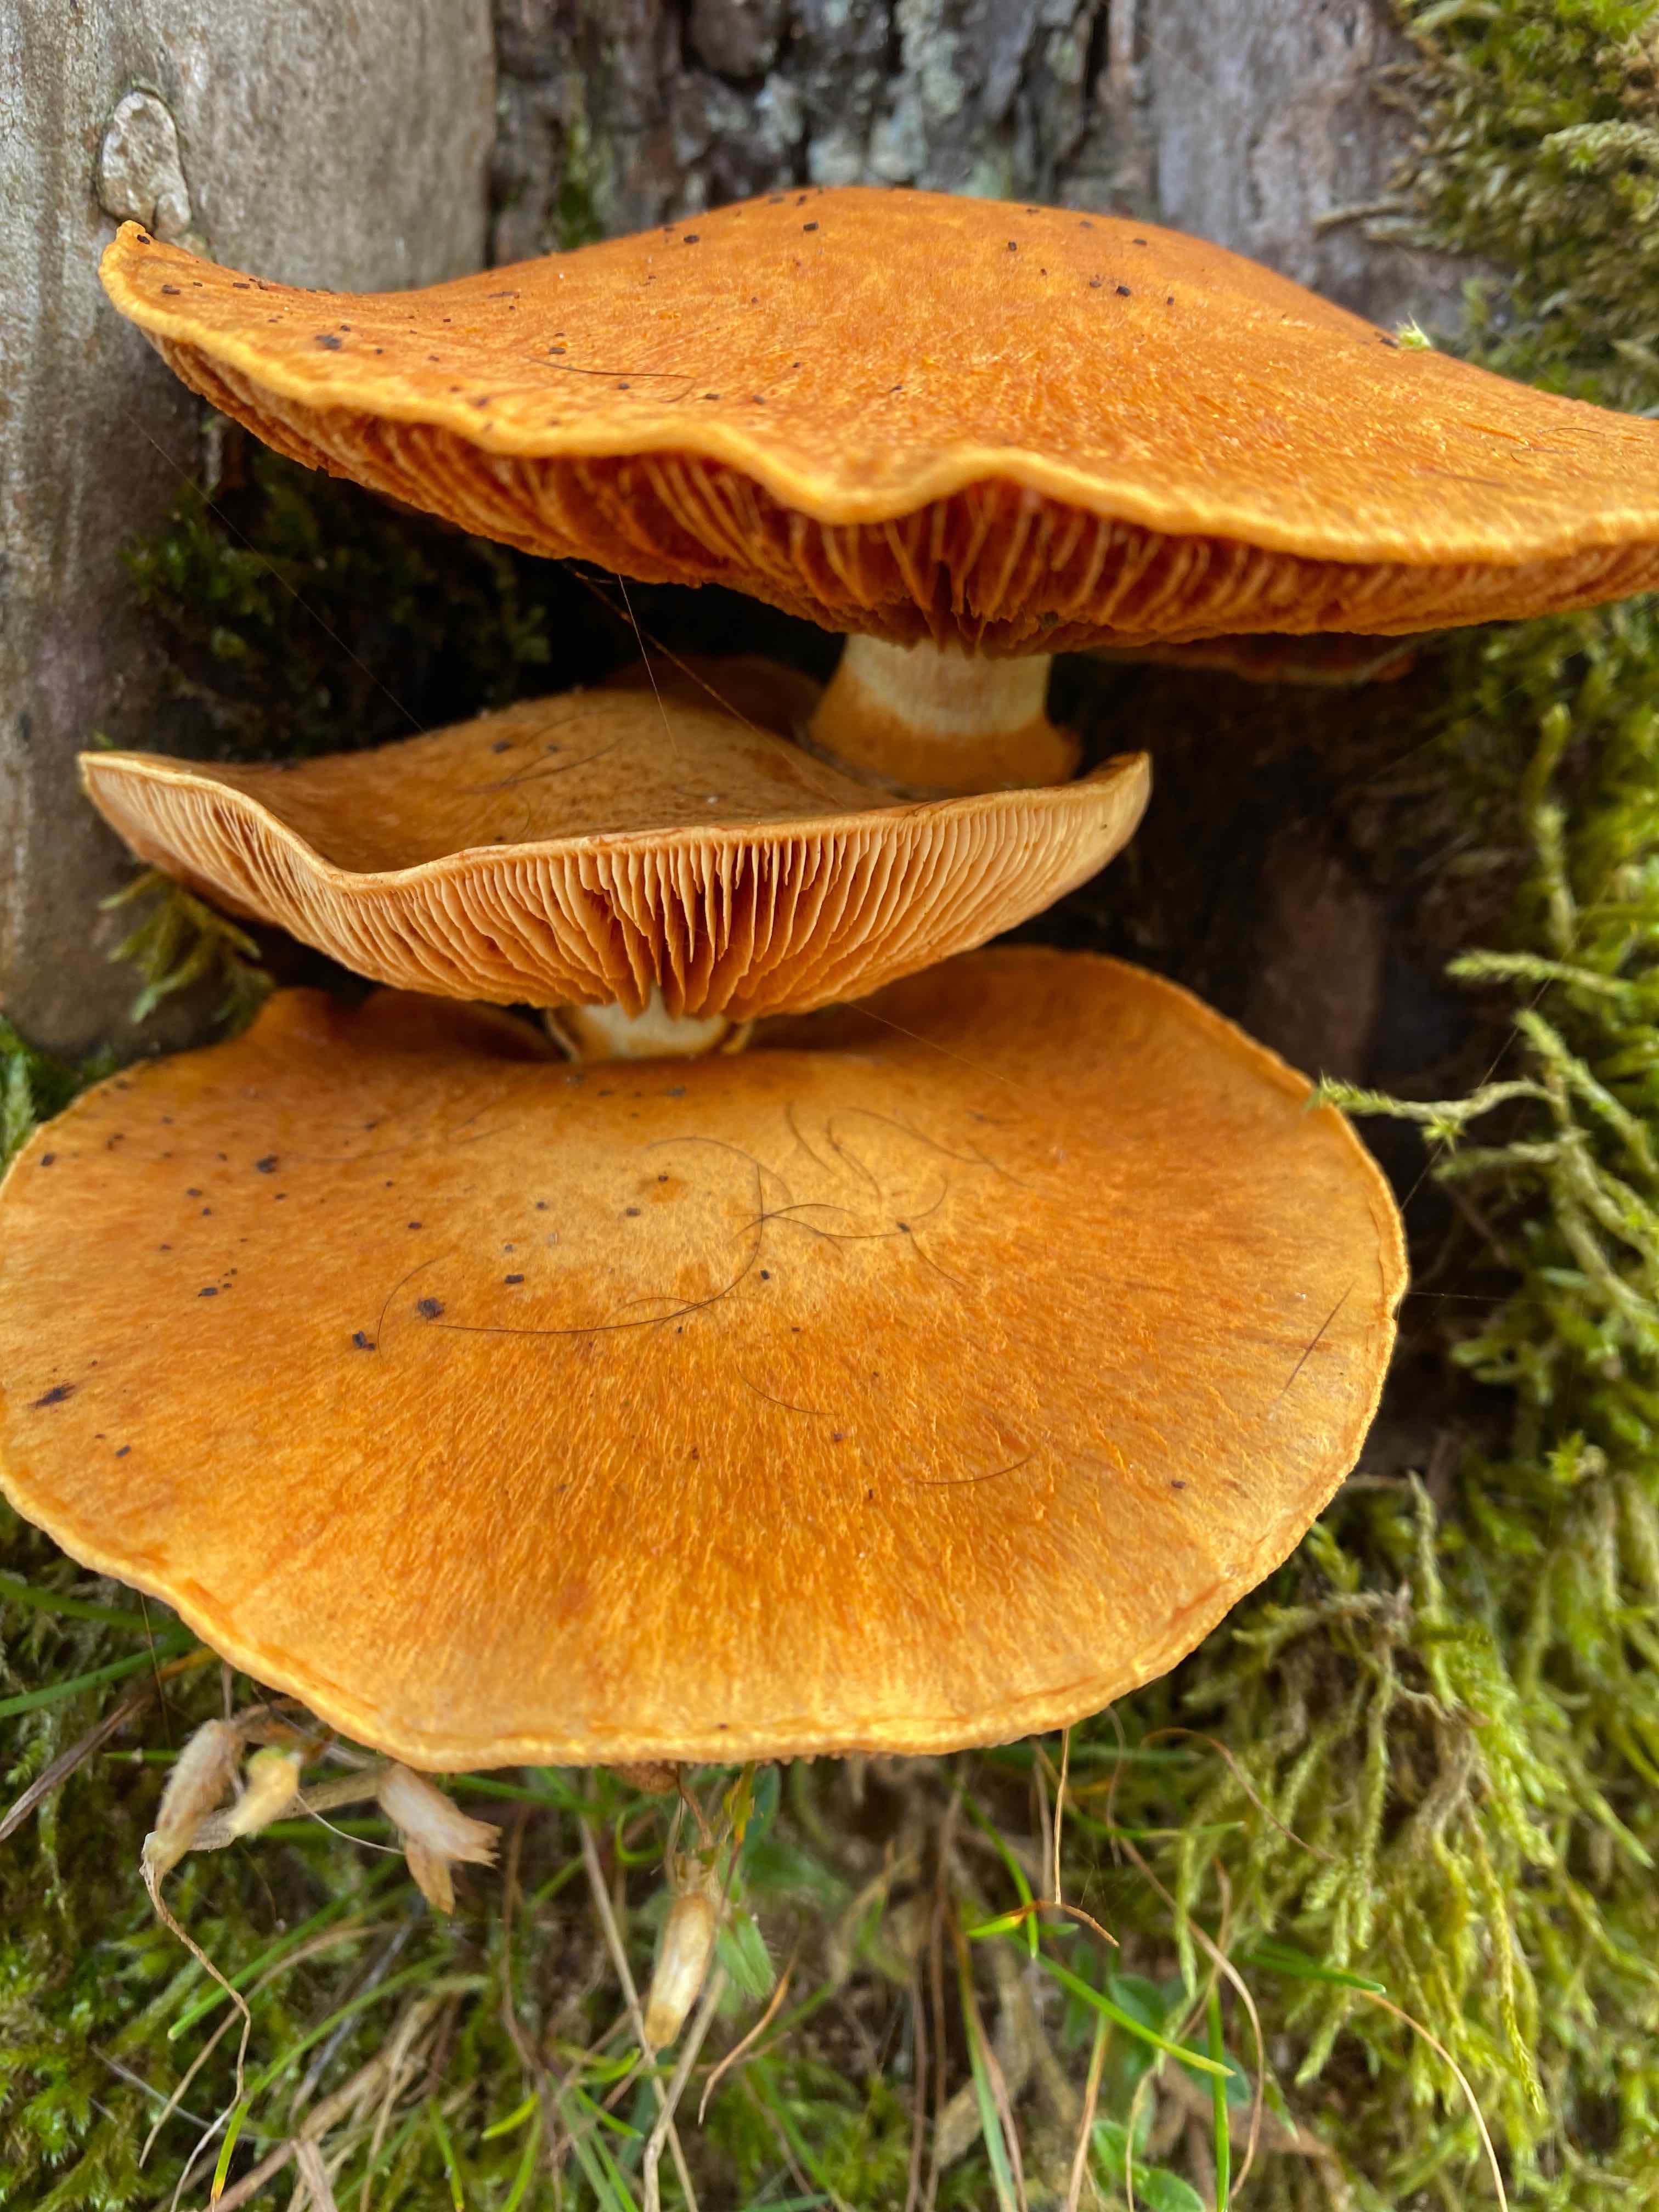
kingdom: Fungi
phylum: Basidiomycota
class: Agaricomycetes
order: Agaricales
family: Hymenogastraceae
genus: Gymnopilus
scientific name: Gymnopilus spectabilis
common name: fibret flammehat
